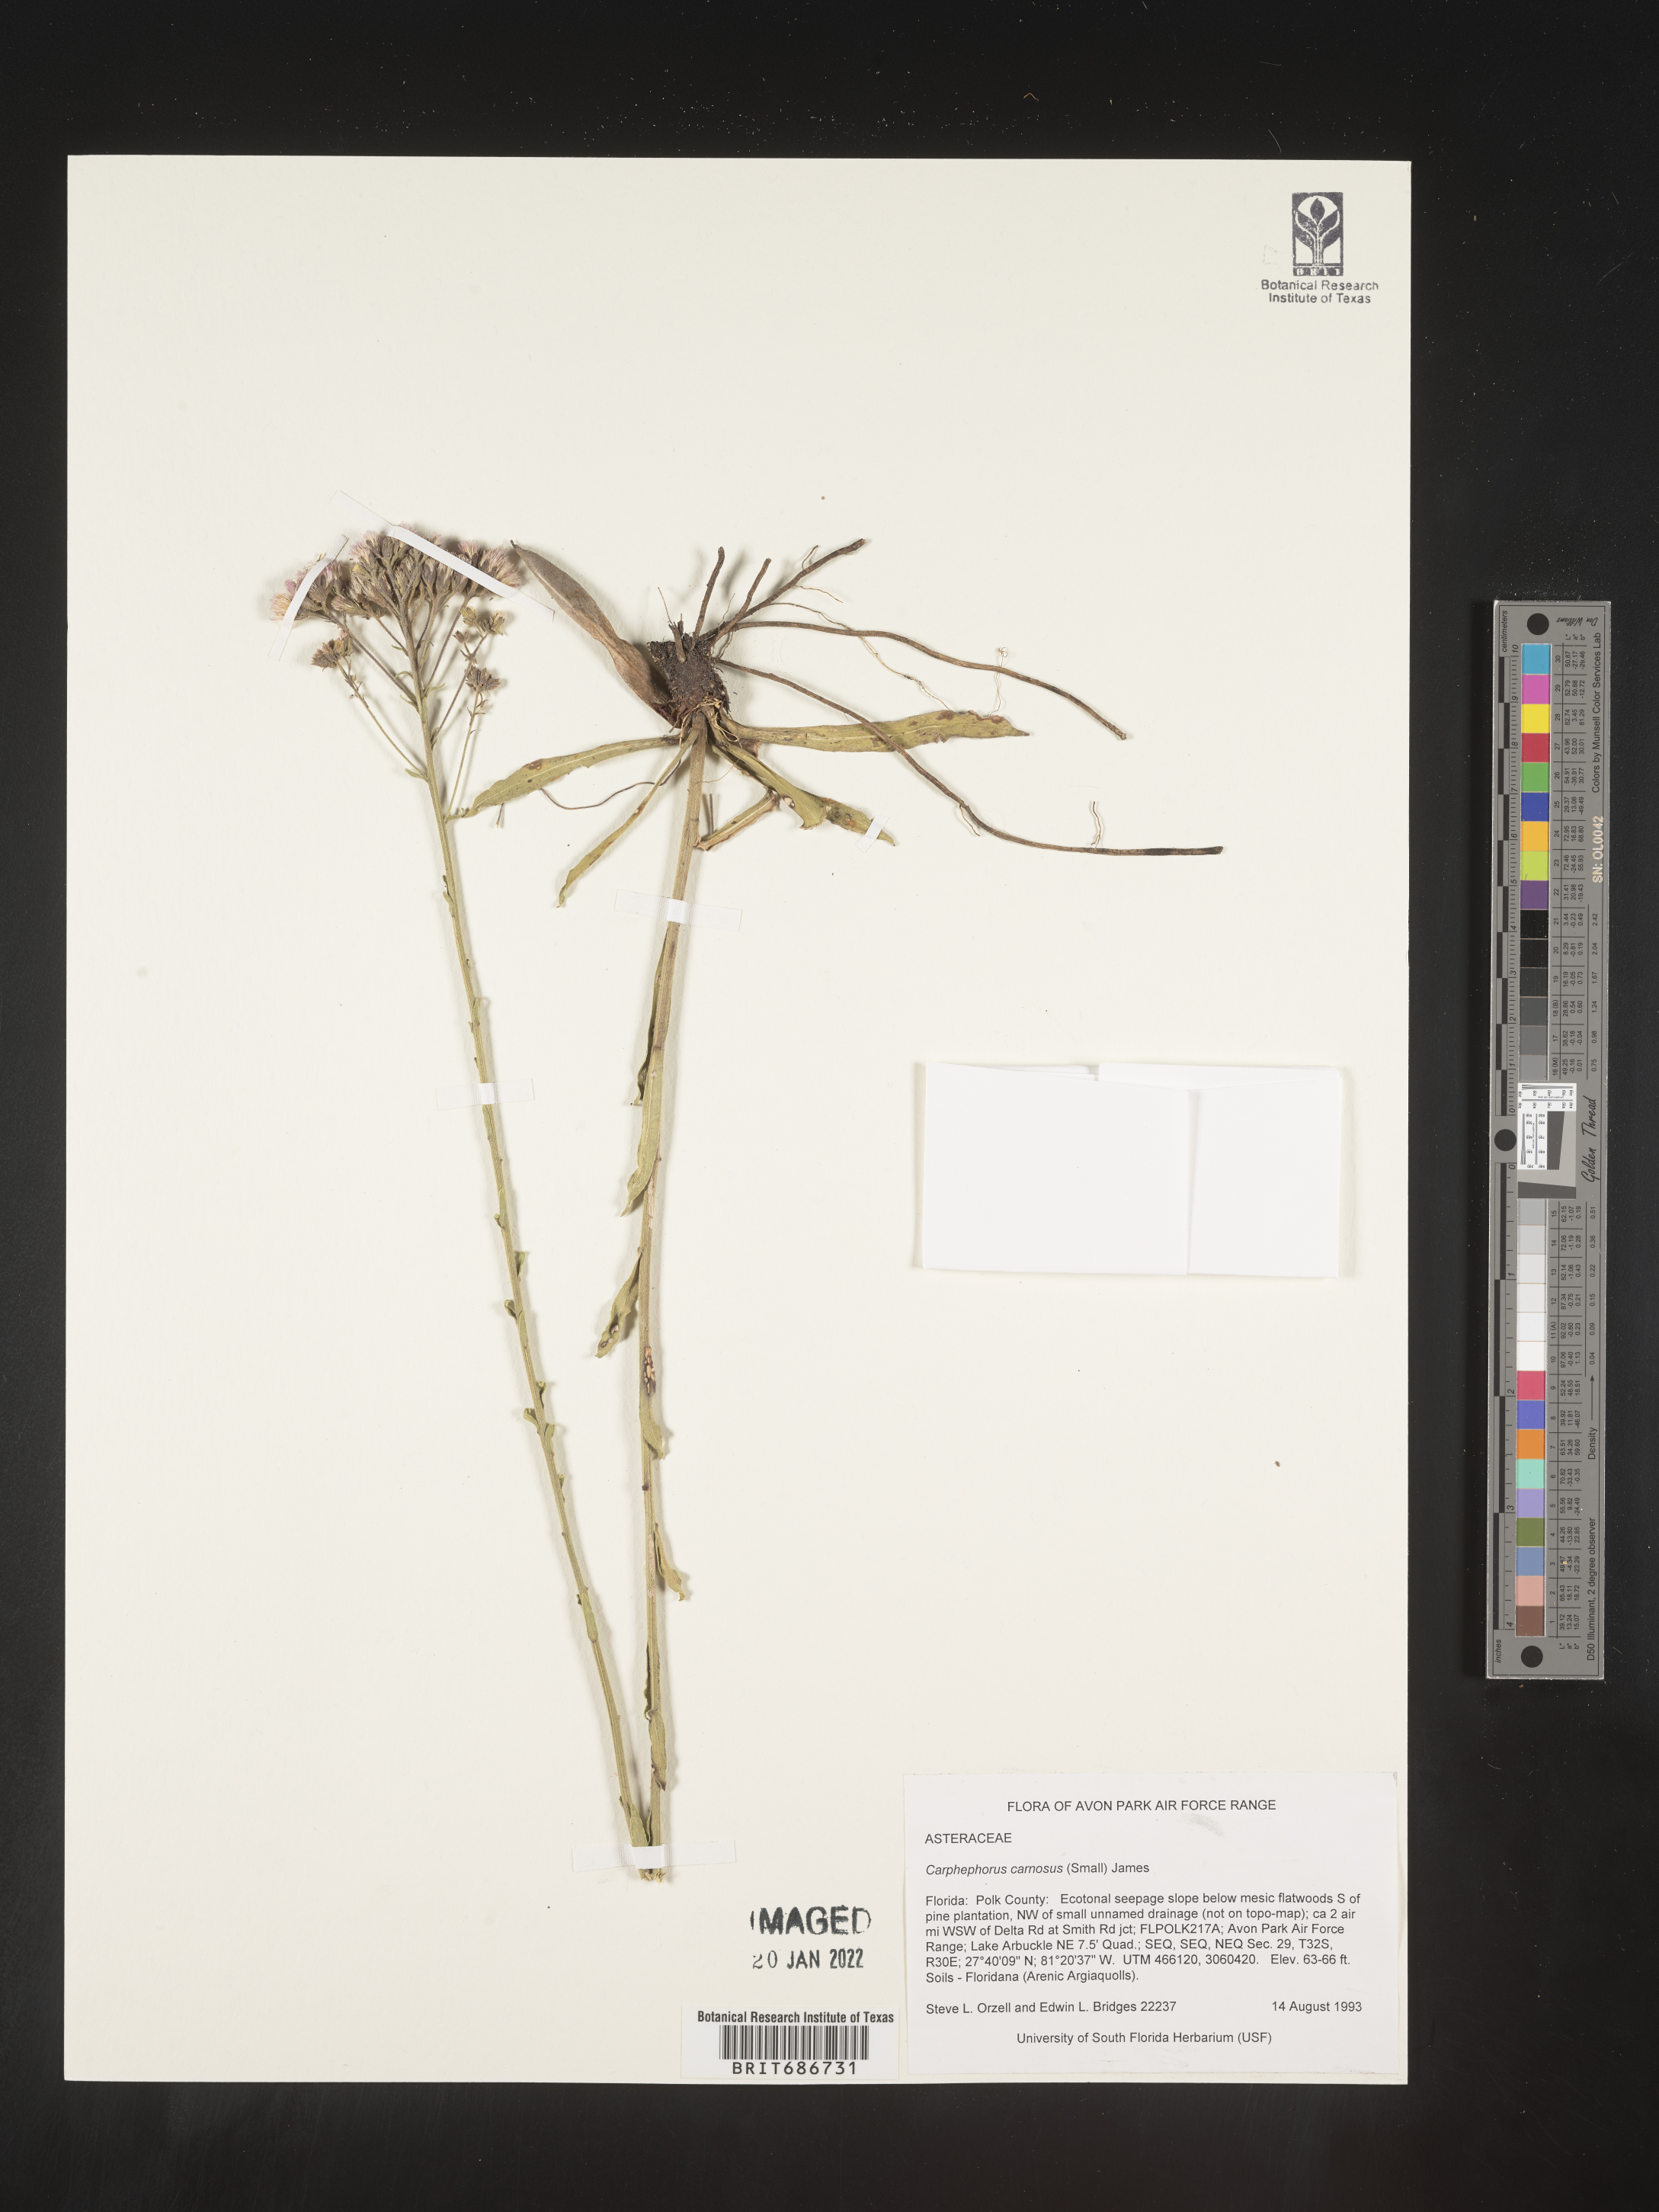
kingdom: Plantae
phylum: Tracheophyta
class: Magnoliopsida
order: Asterales
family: Asteraceae
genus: Carphephorus
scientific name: Carphephorus carnosus
